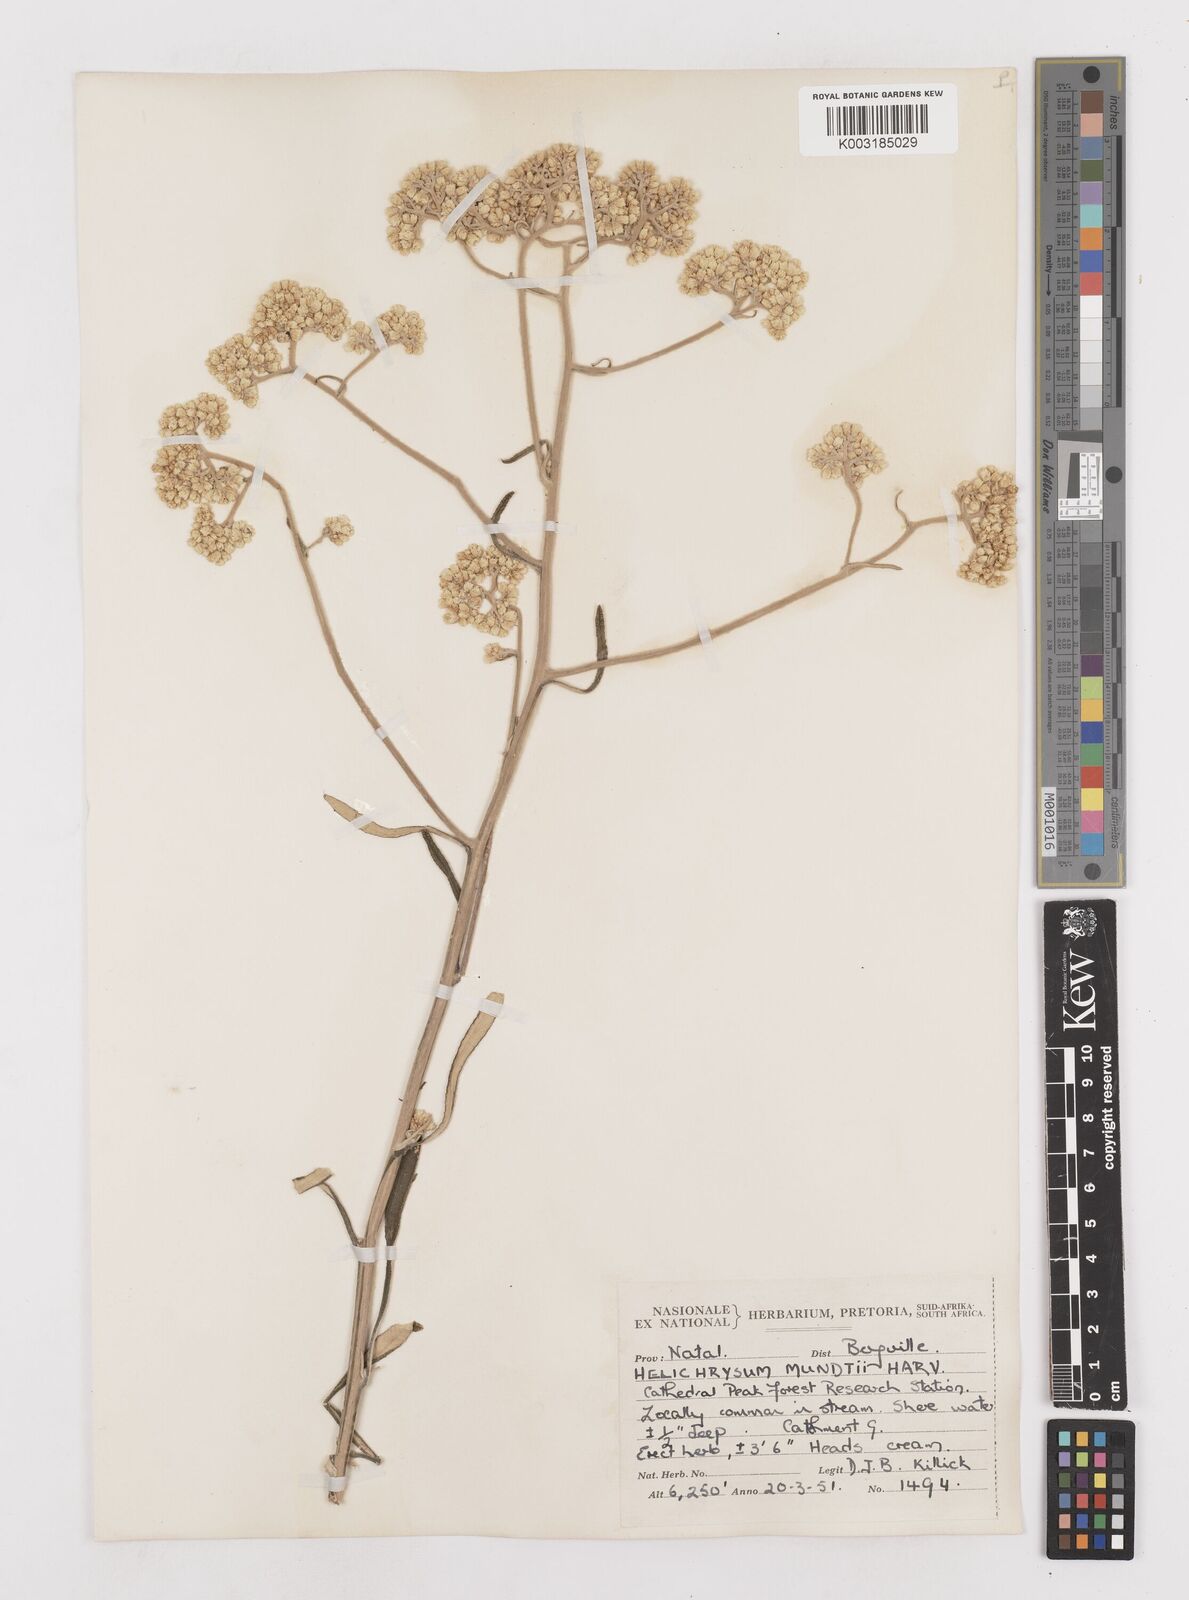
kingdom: Plantae
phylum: Tracheophyta
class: Magnoliopsida
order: Asterales
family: Asteraceae
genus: Helichrysum
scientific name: Helichrysum mundii
